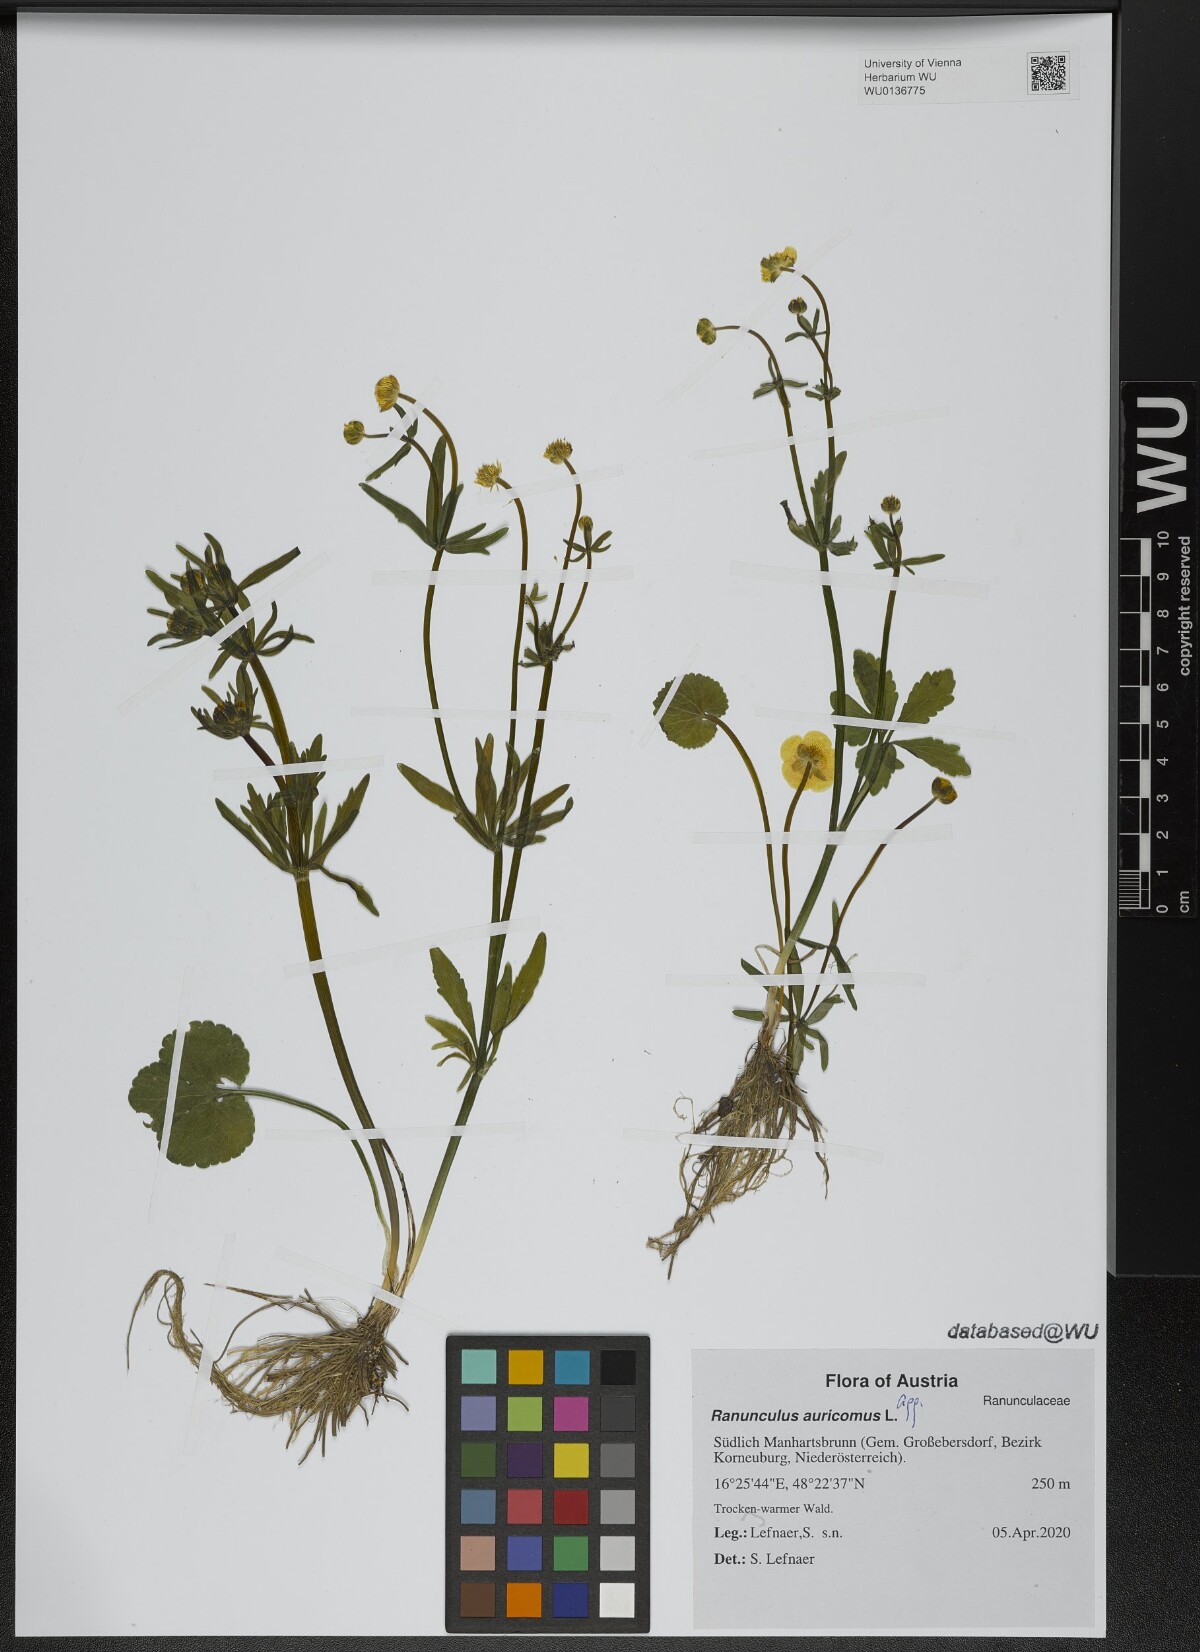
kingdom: Plantae
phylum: Tracheophyta
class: Magnoliopsida
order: Ranunculales
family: Ranunculaceae
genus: Ranunculus
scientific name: Ranunculus auricomus
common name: Goldilocks buttercup
